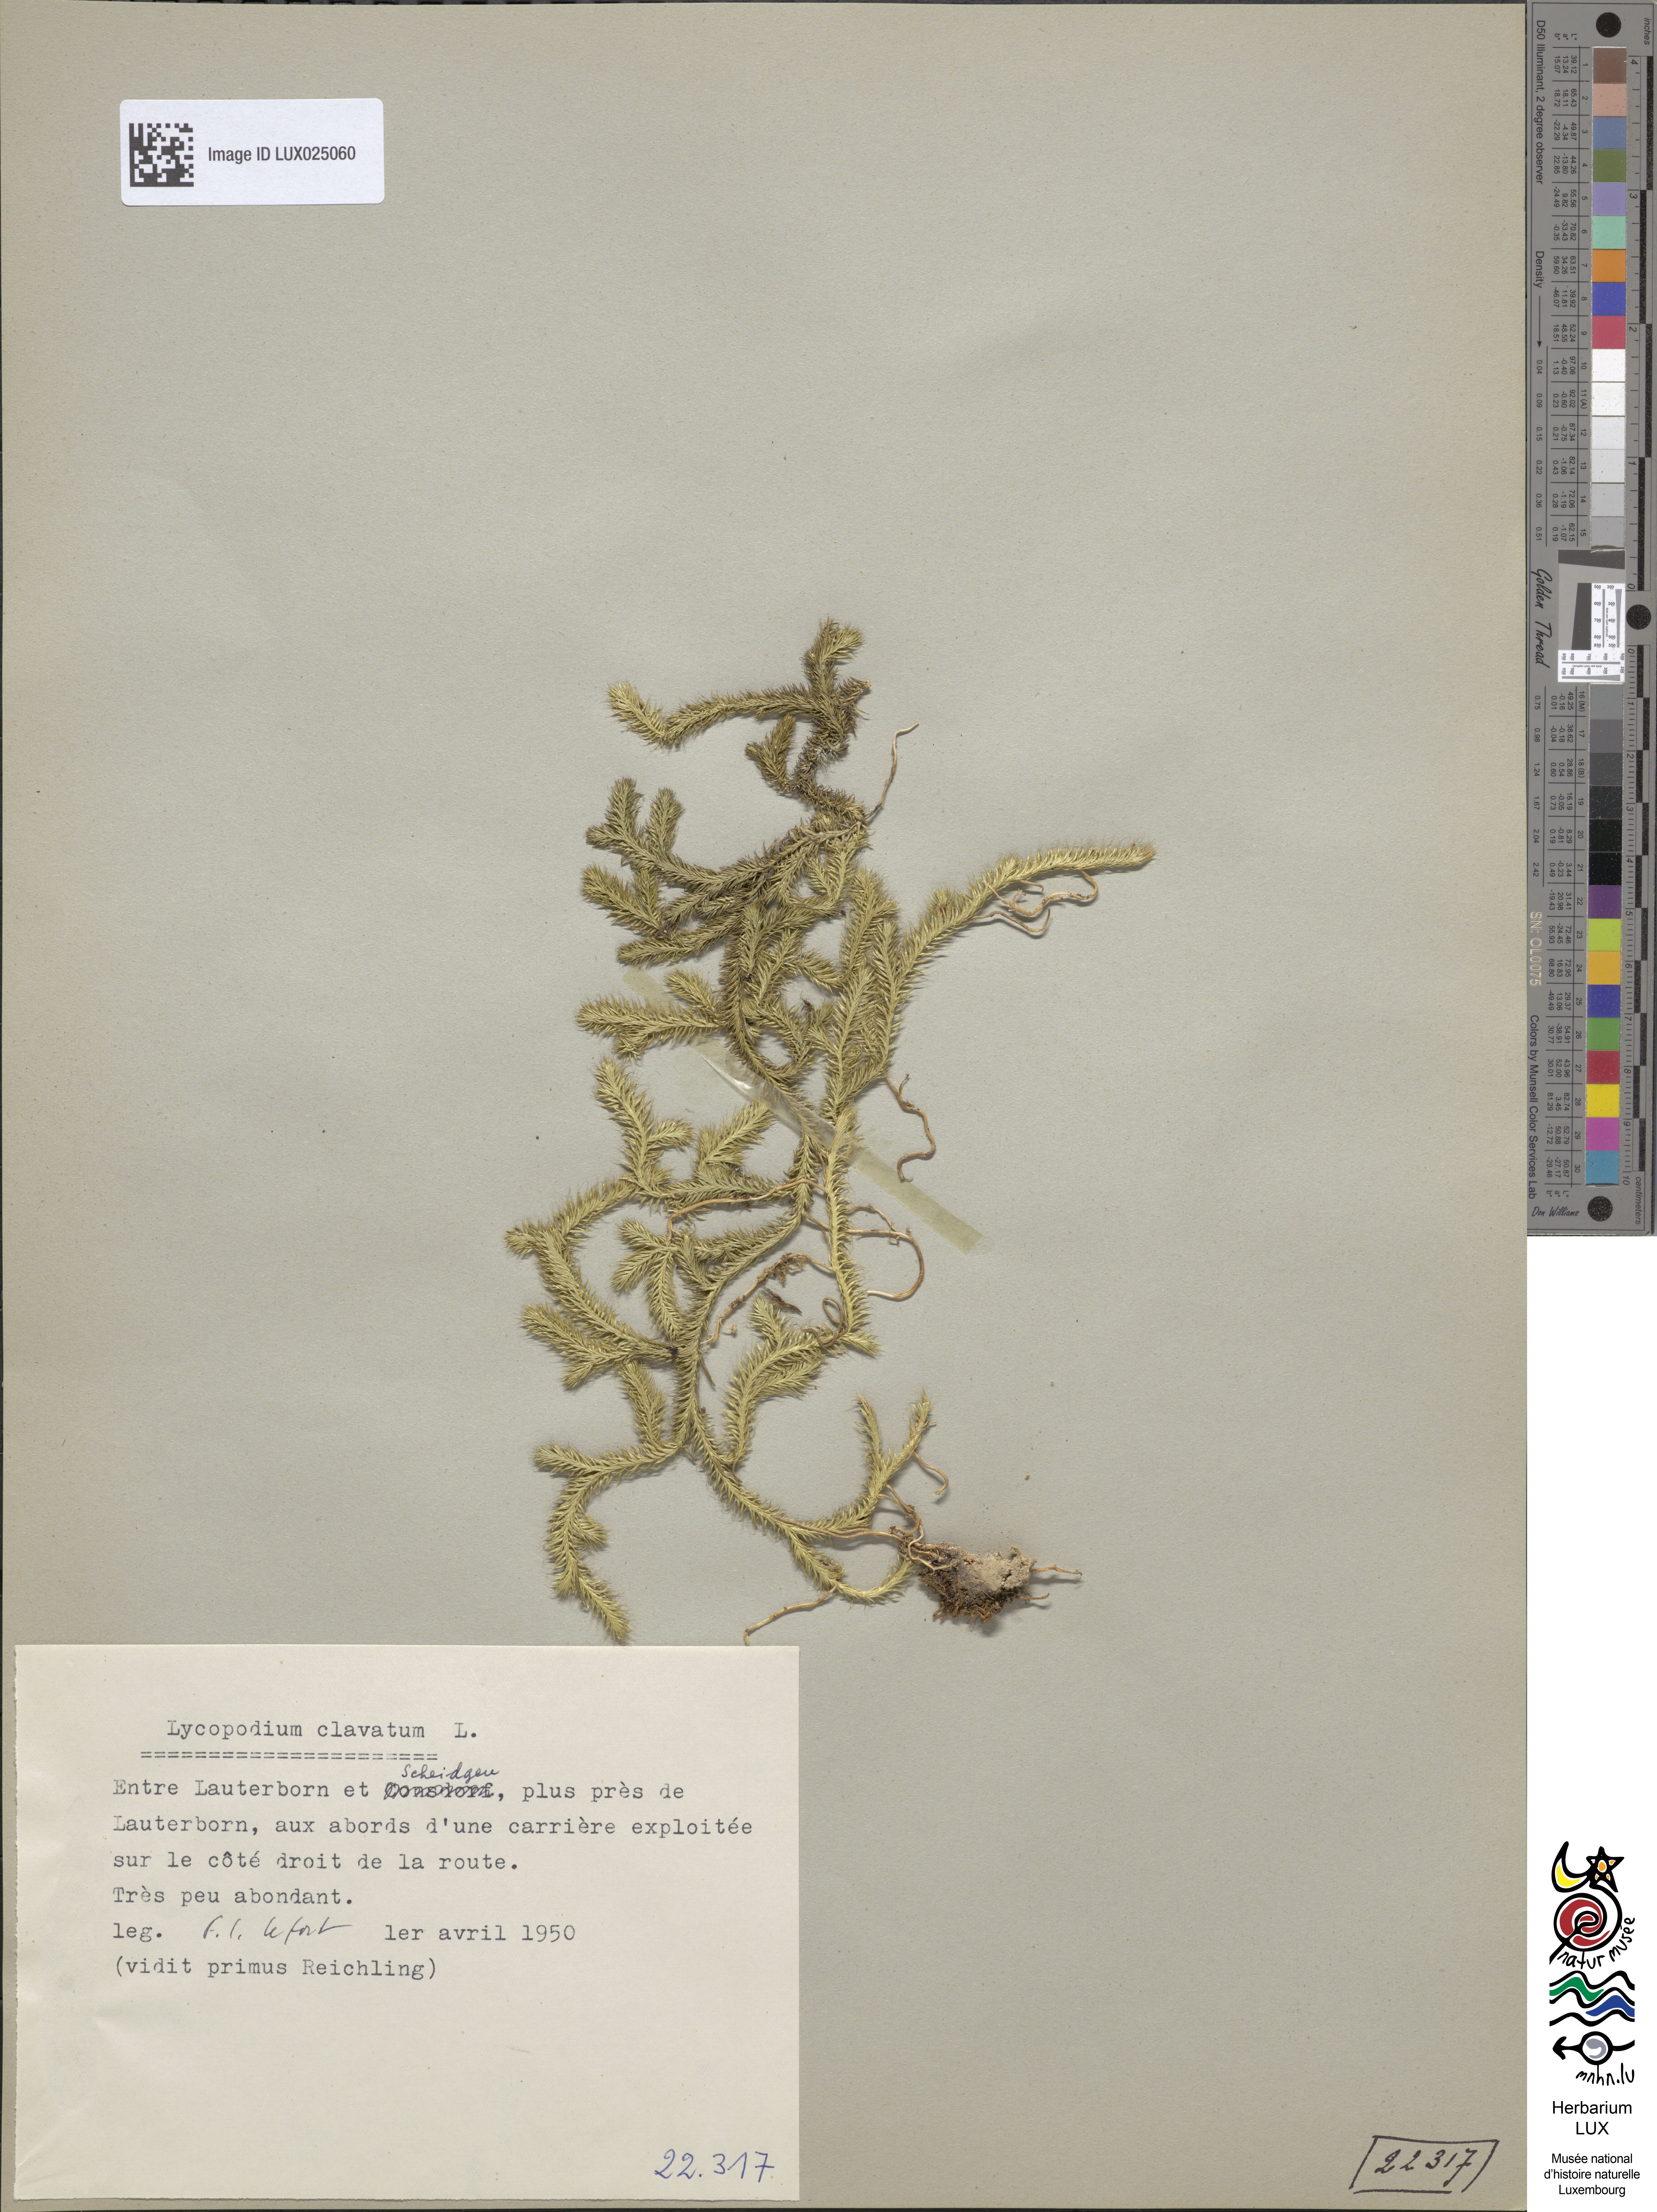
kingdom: Plantae
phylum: Tracheophyta
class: Lycopodiopsida
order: Lycopodiales
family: Lycopodiaceae
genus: Lycopodium
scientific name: Lycopodium clavatum
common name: Stag's-horn clubmoss
